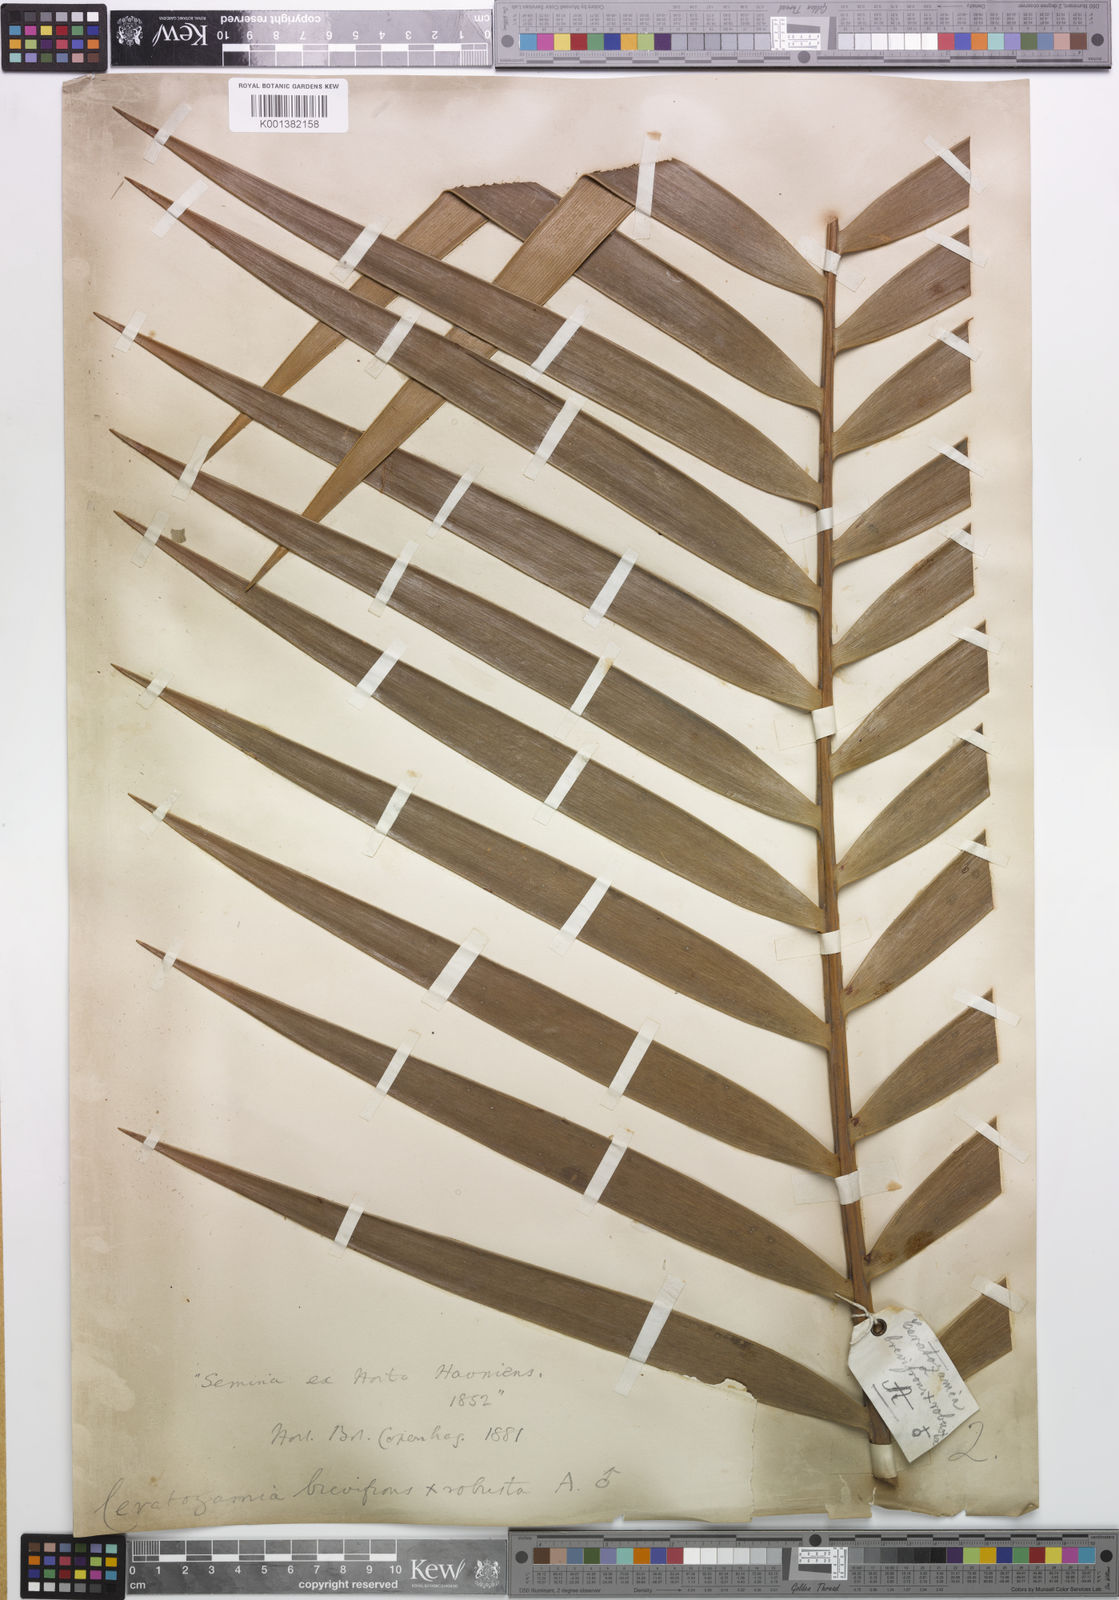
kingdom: Plantae
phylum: Tracheophyta
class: Cycadopsida
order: Cycadales
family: Zamiaceae
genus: Ceratozamia
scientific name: Ceratozamia brevifrons
